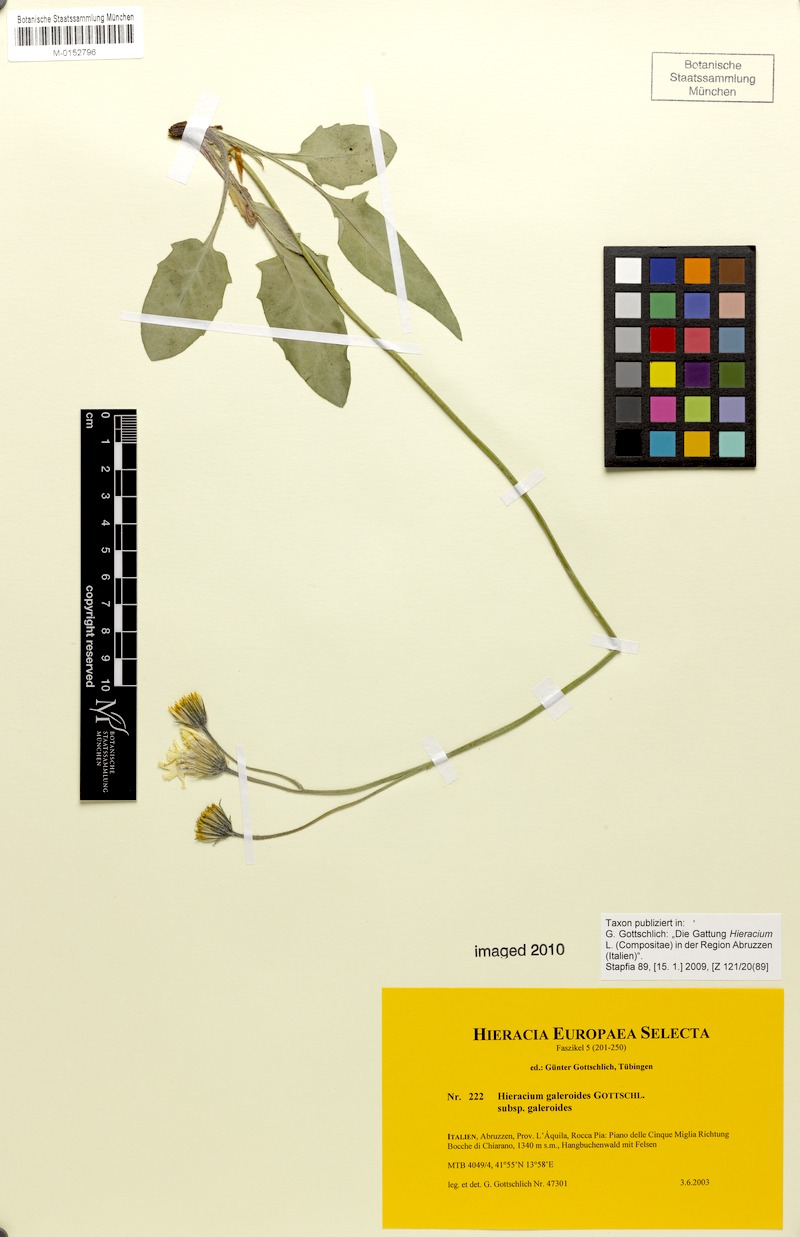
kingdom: Plantae
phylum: Tracheophyta
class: Magnoliopsida
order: Asterales
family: Asteraceae
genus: Hieracium
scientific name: Hieracium galeroides
